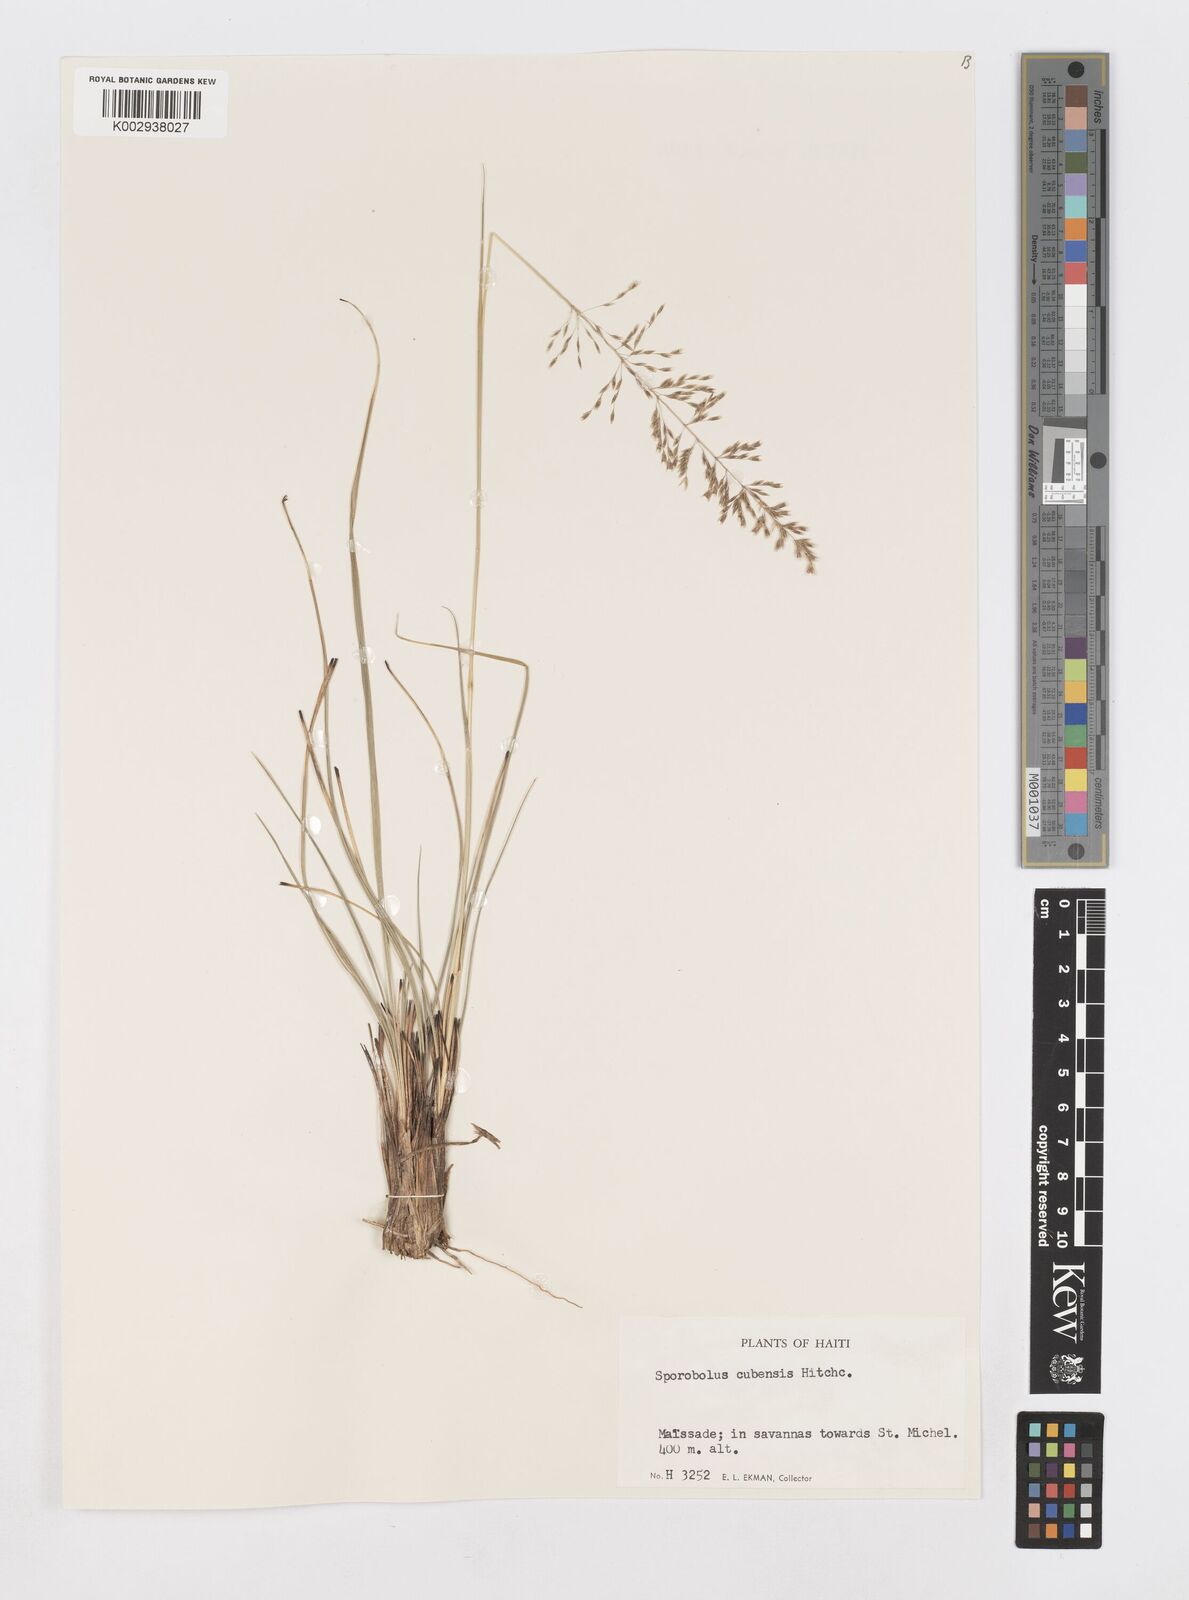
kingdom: Plantae
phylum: Tracheophyta
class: Liliopsida
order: Poales
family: Poaceae
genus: Sporobolus
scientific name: Sporobolus cubensis
